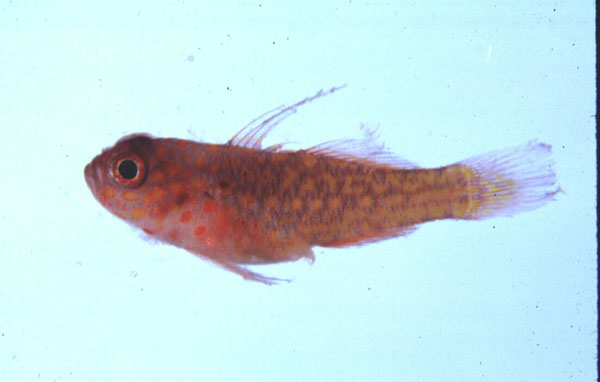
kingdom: Animalia
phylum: Chordata
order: Perciformes
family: Gobiidae
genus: Trimma
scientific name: Trimma flammeum
